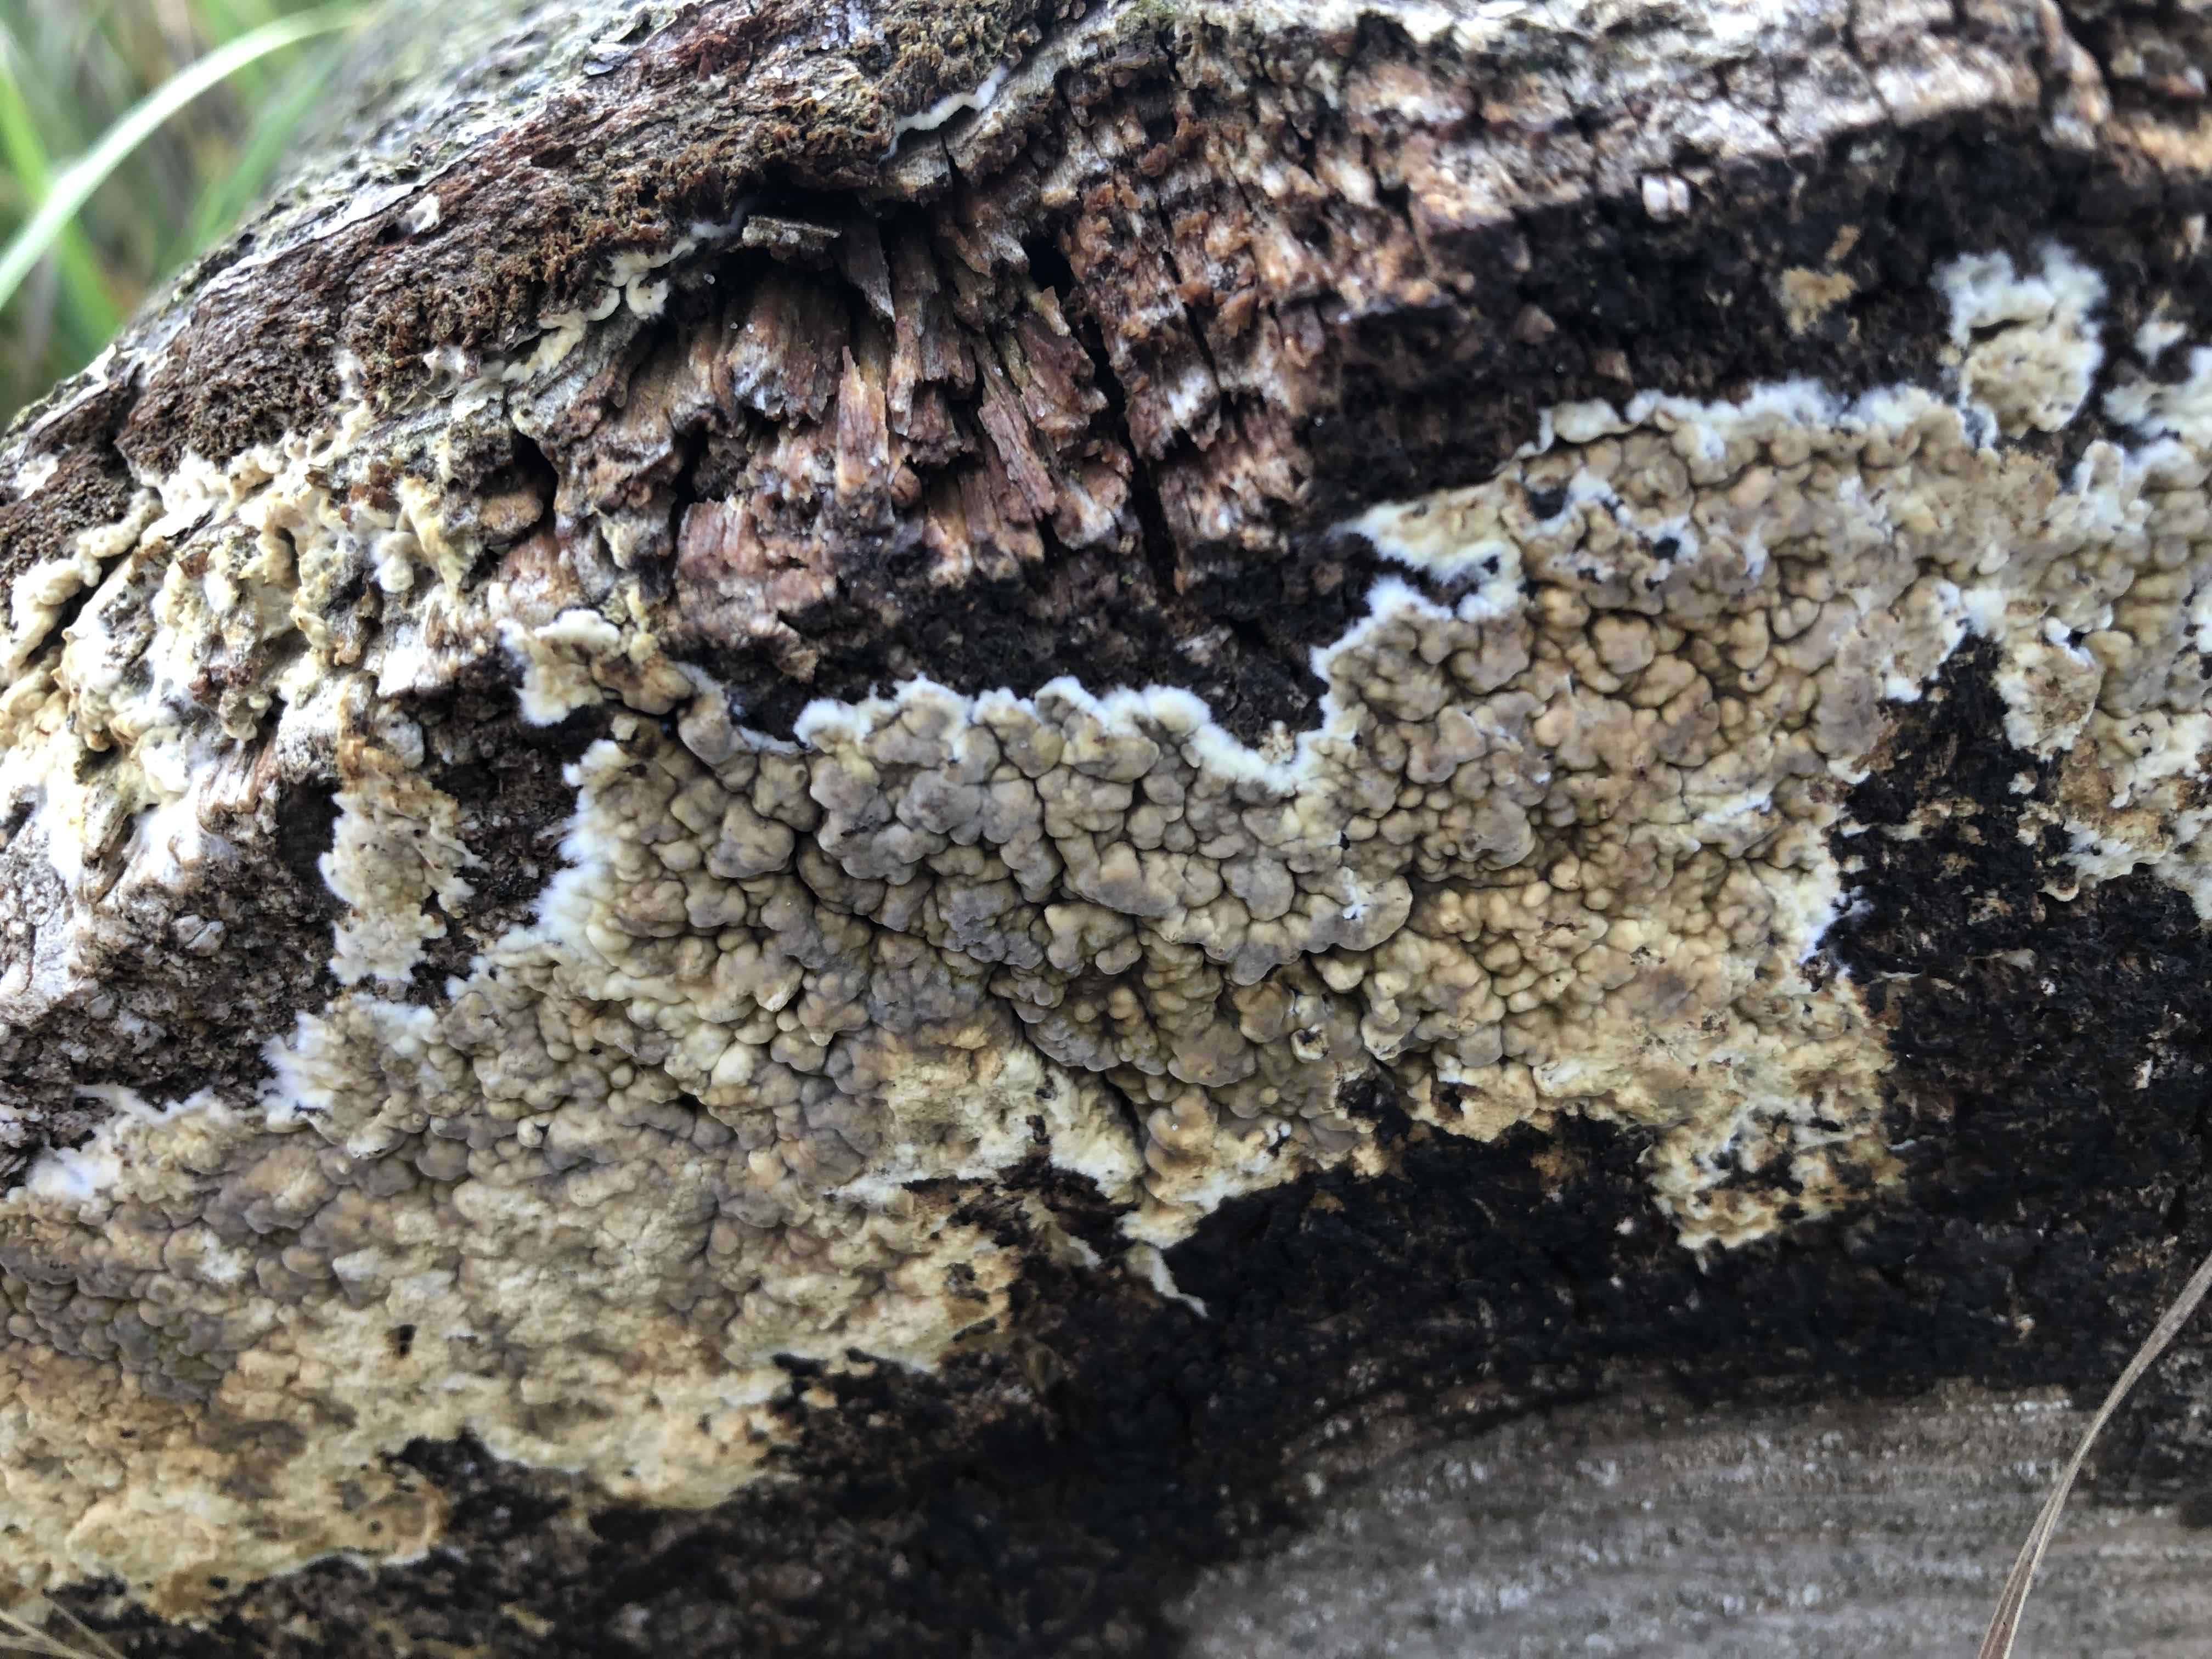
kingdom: Fungi
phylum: Basidiomycota
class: Agaricomycetes
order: Boletales
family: Coniophoraceae
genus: Coniophora
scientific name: Coniophora puteana
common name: gul tømmersvamp
